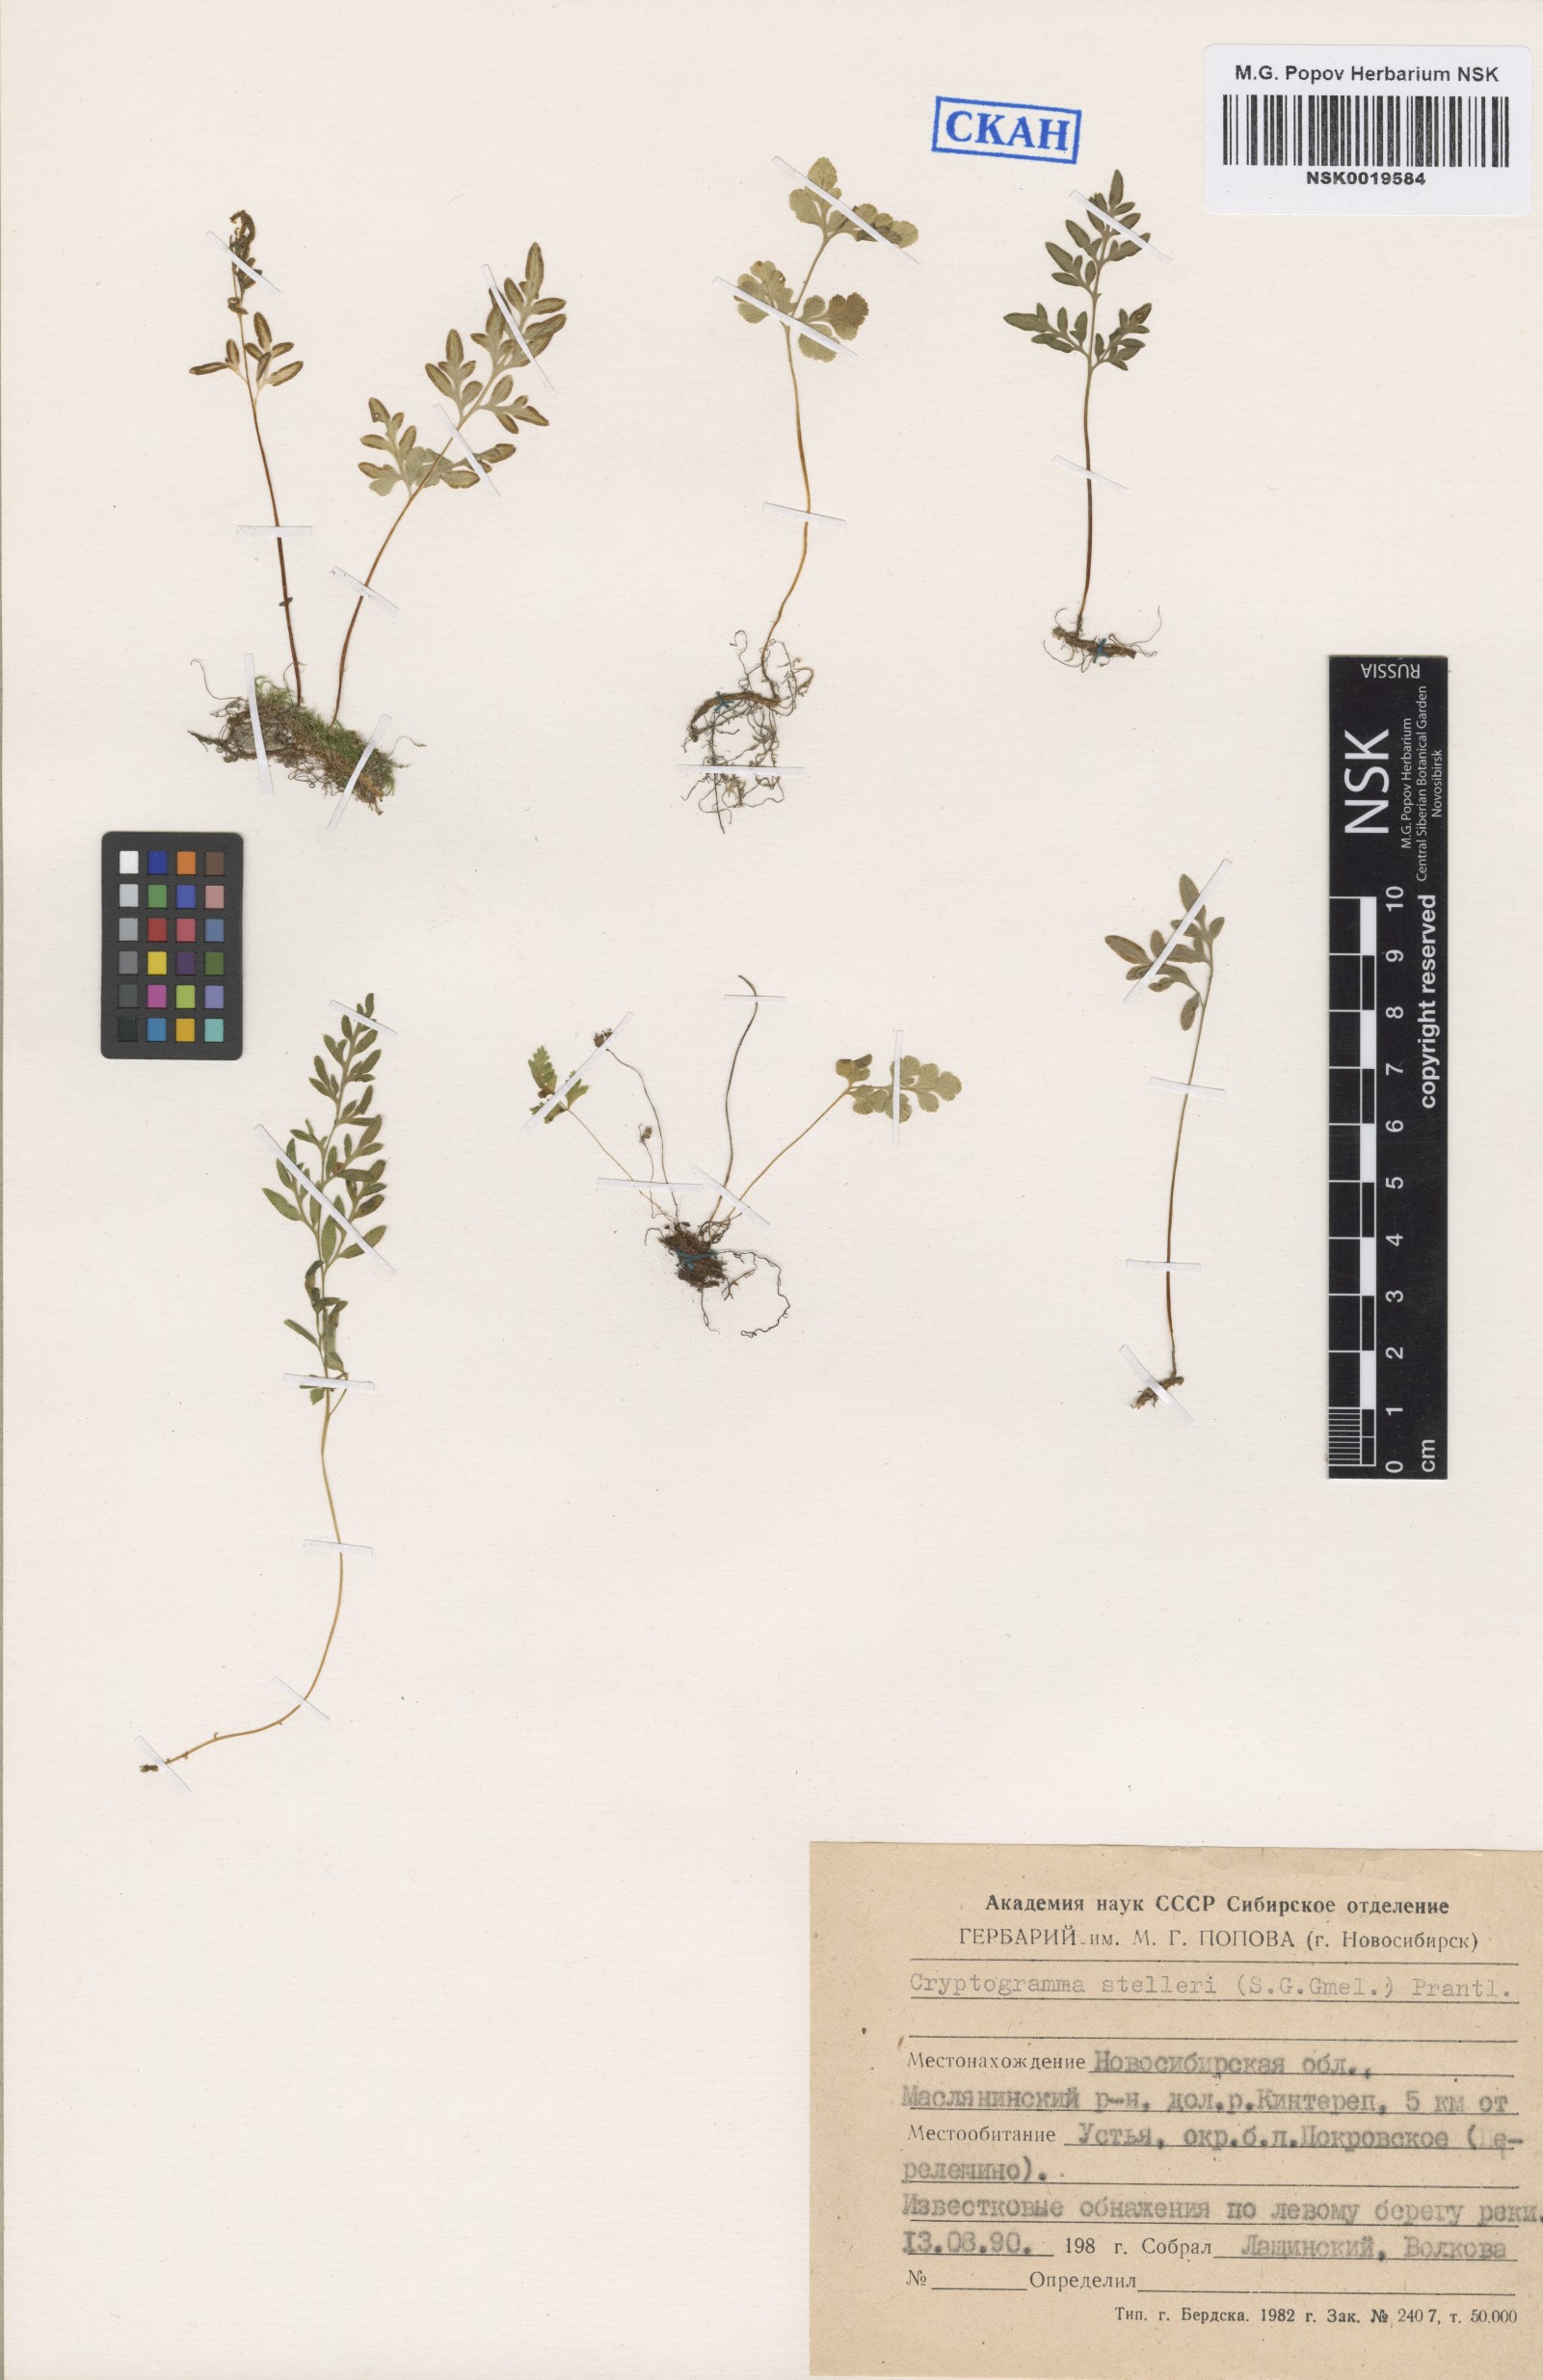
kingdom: Plantae
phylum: Tracheophyta
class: Polypodiopsida
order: Polypodiales
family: Pteridaceae
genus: Cryptogramma
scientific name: Cryptogramma stelleri
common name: Cliff-brake
